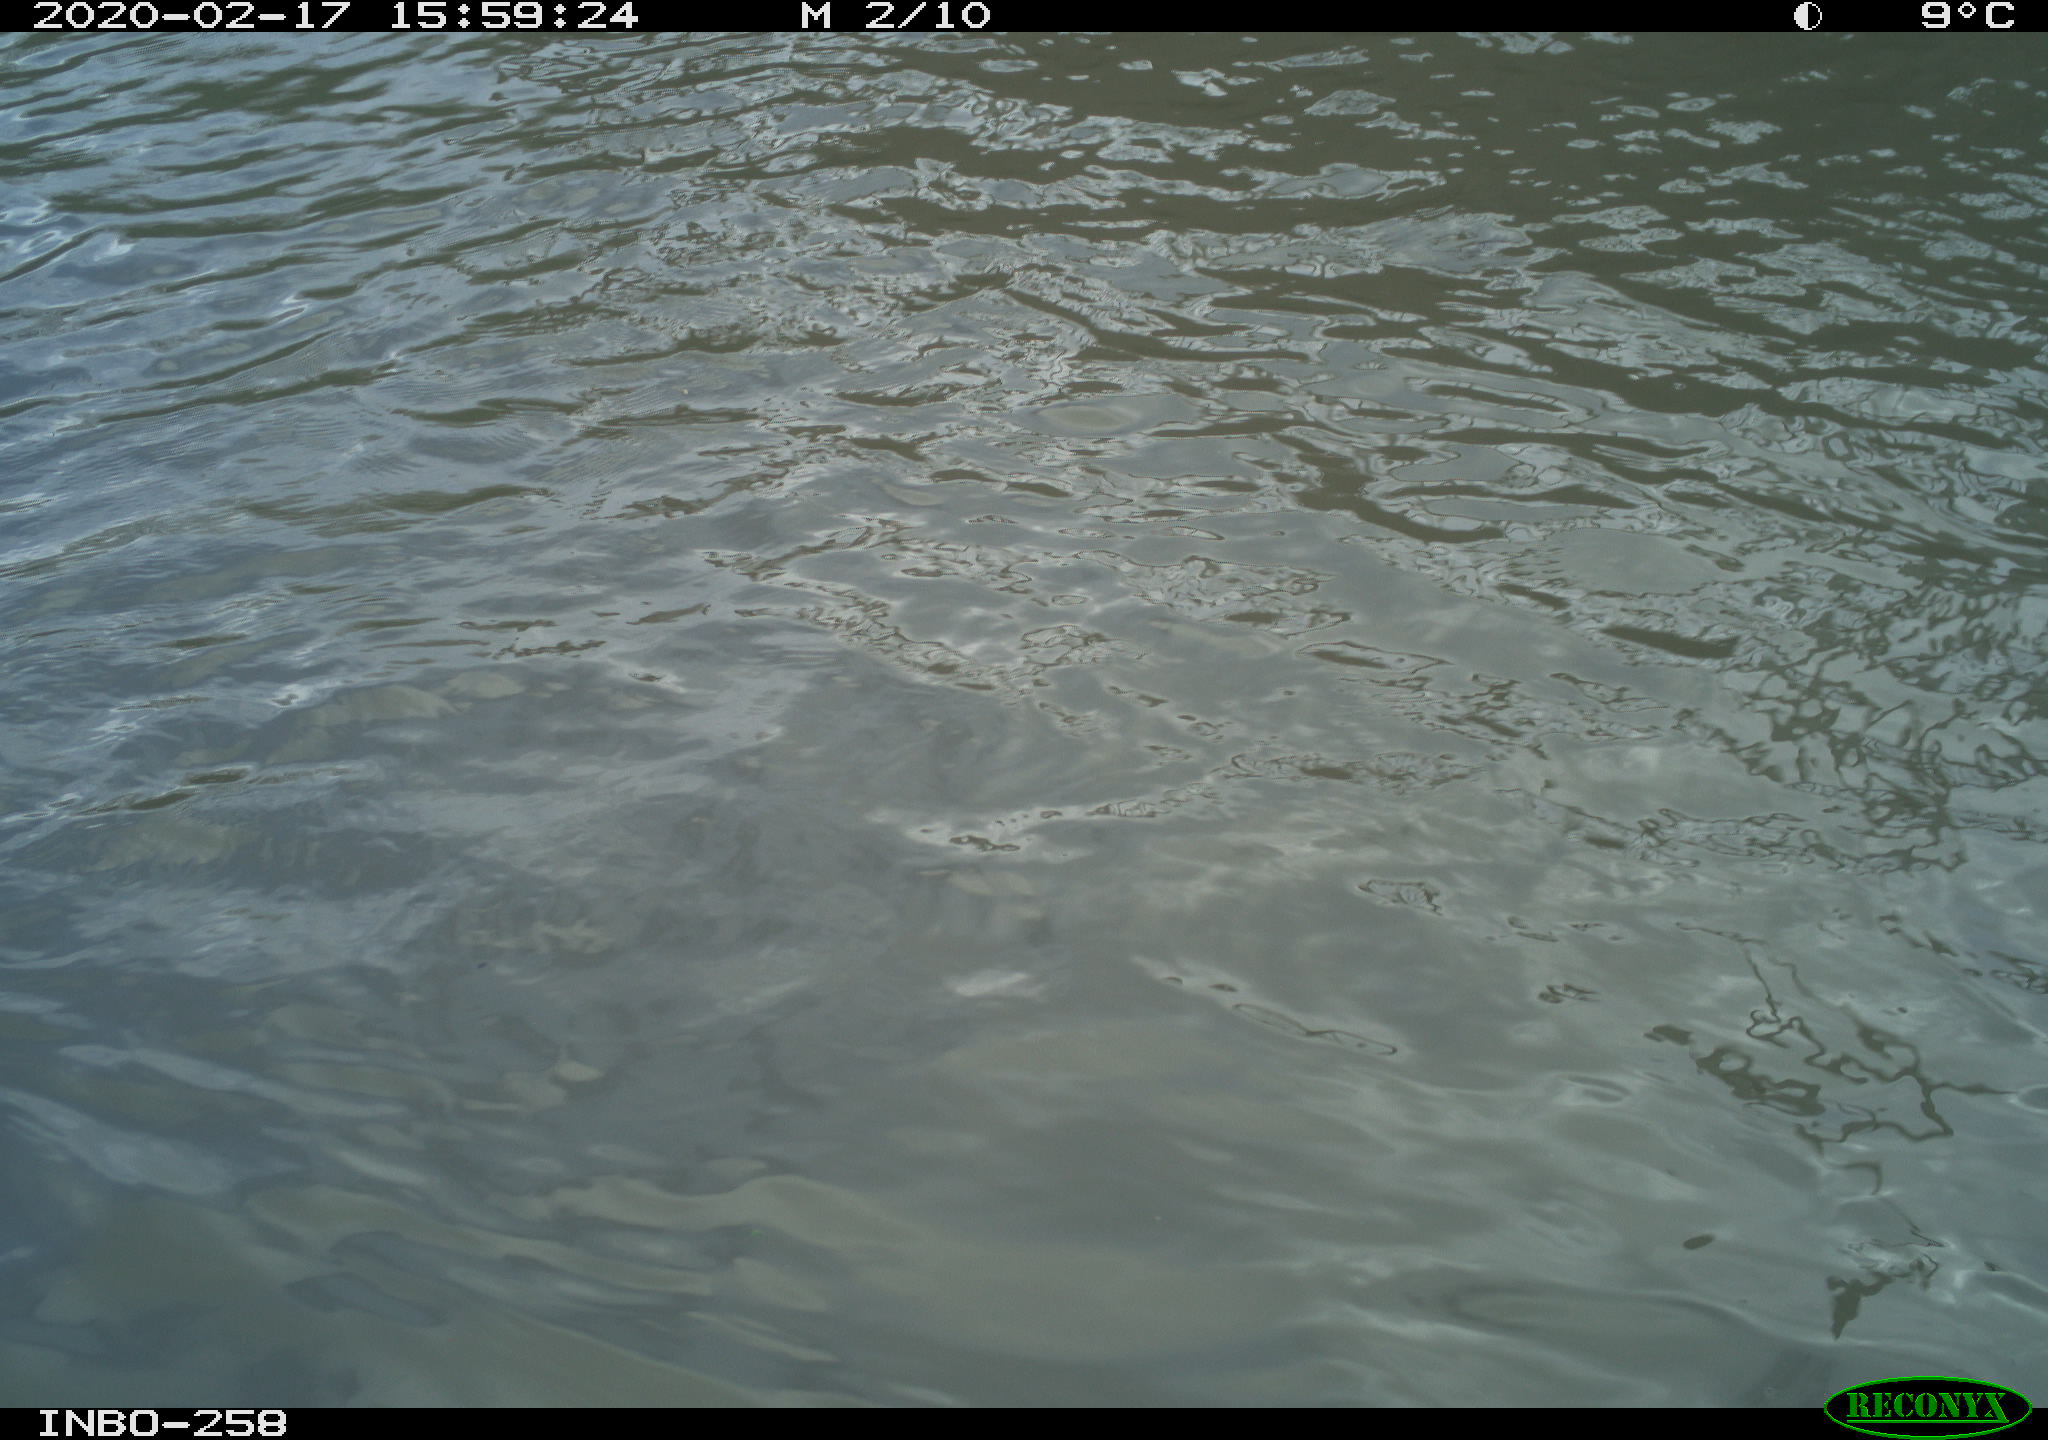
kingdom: Animalia
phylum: Chordata
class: Aves
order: Gruiformes
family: Rallidae
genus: Gallinula
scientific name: Gallinula chloropus
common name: Common moorhen
